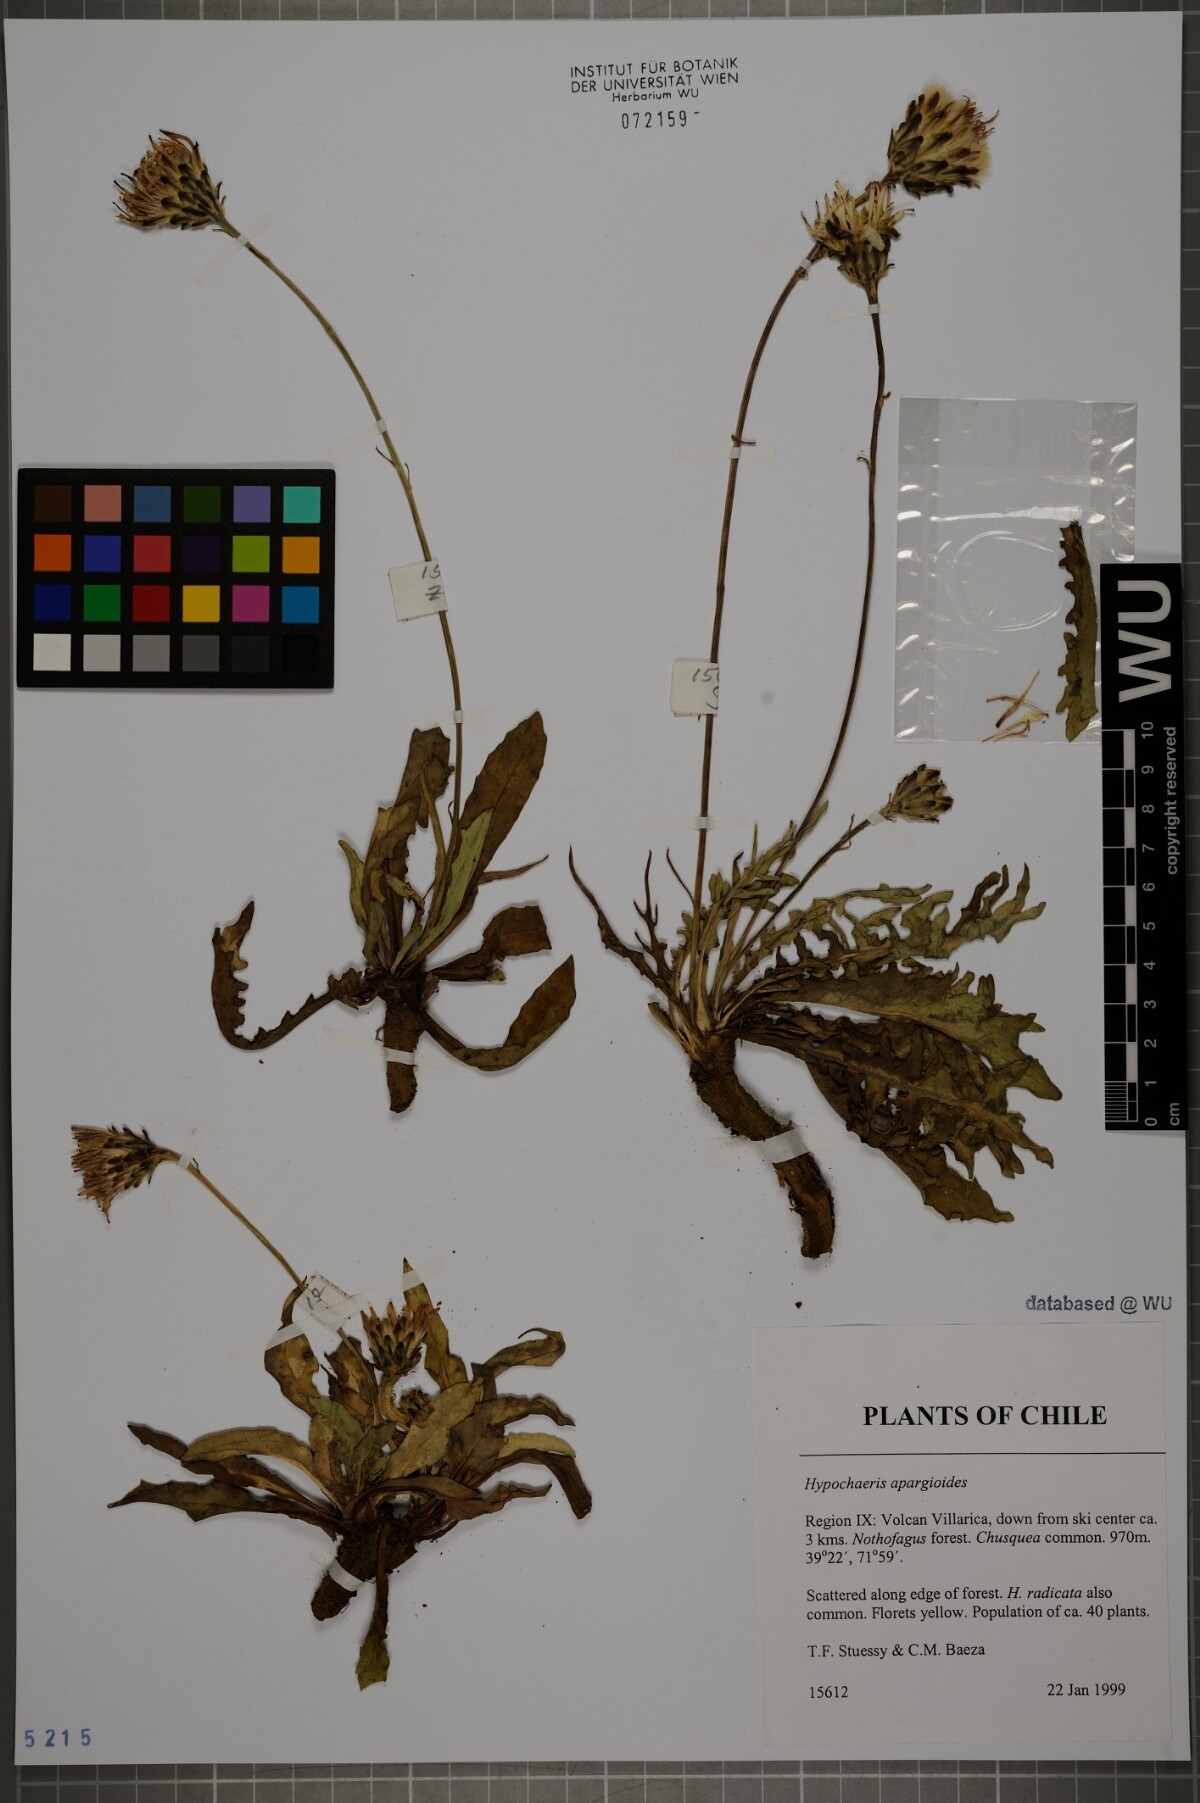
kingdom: Plantae
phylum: Tracheophyta
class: Magnoliopsida
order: Asterales
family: Asteraceae
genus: Hypochaeris
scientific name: Hypochaeris apargioides
